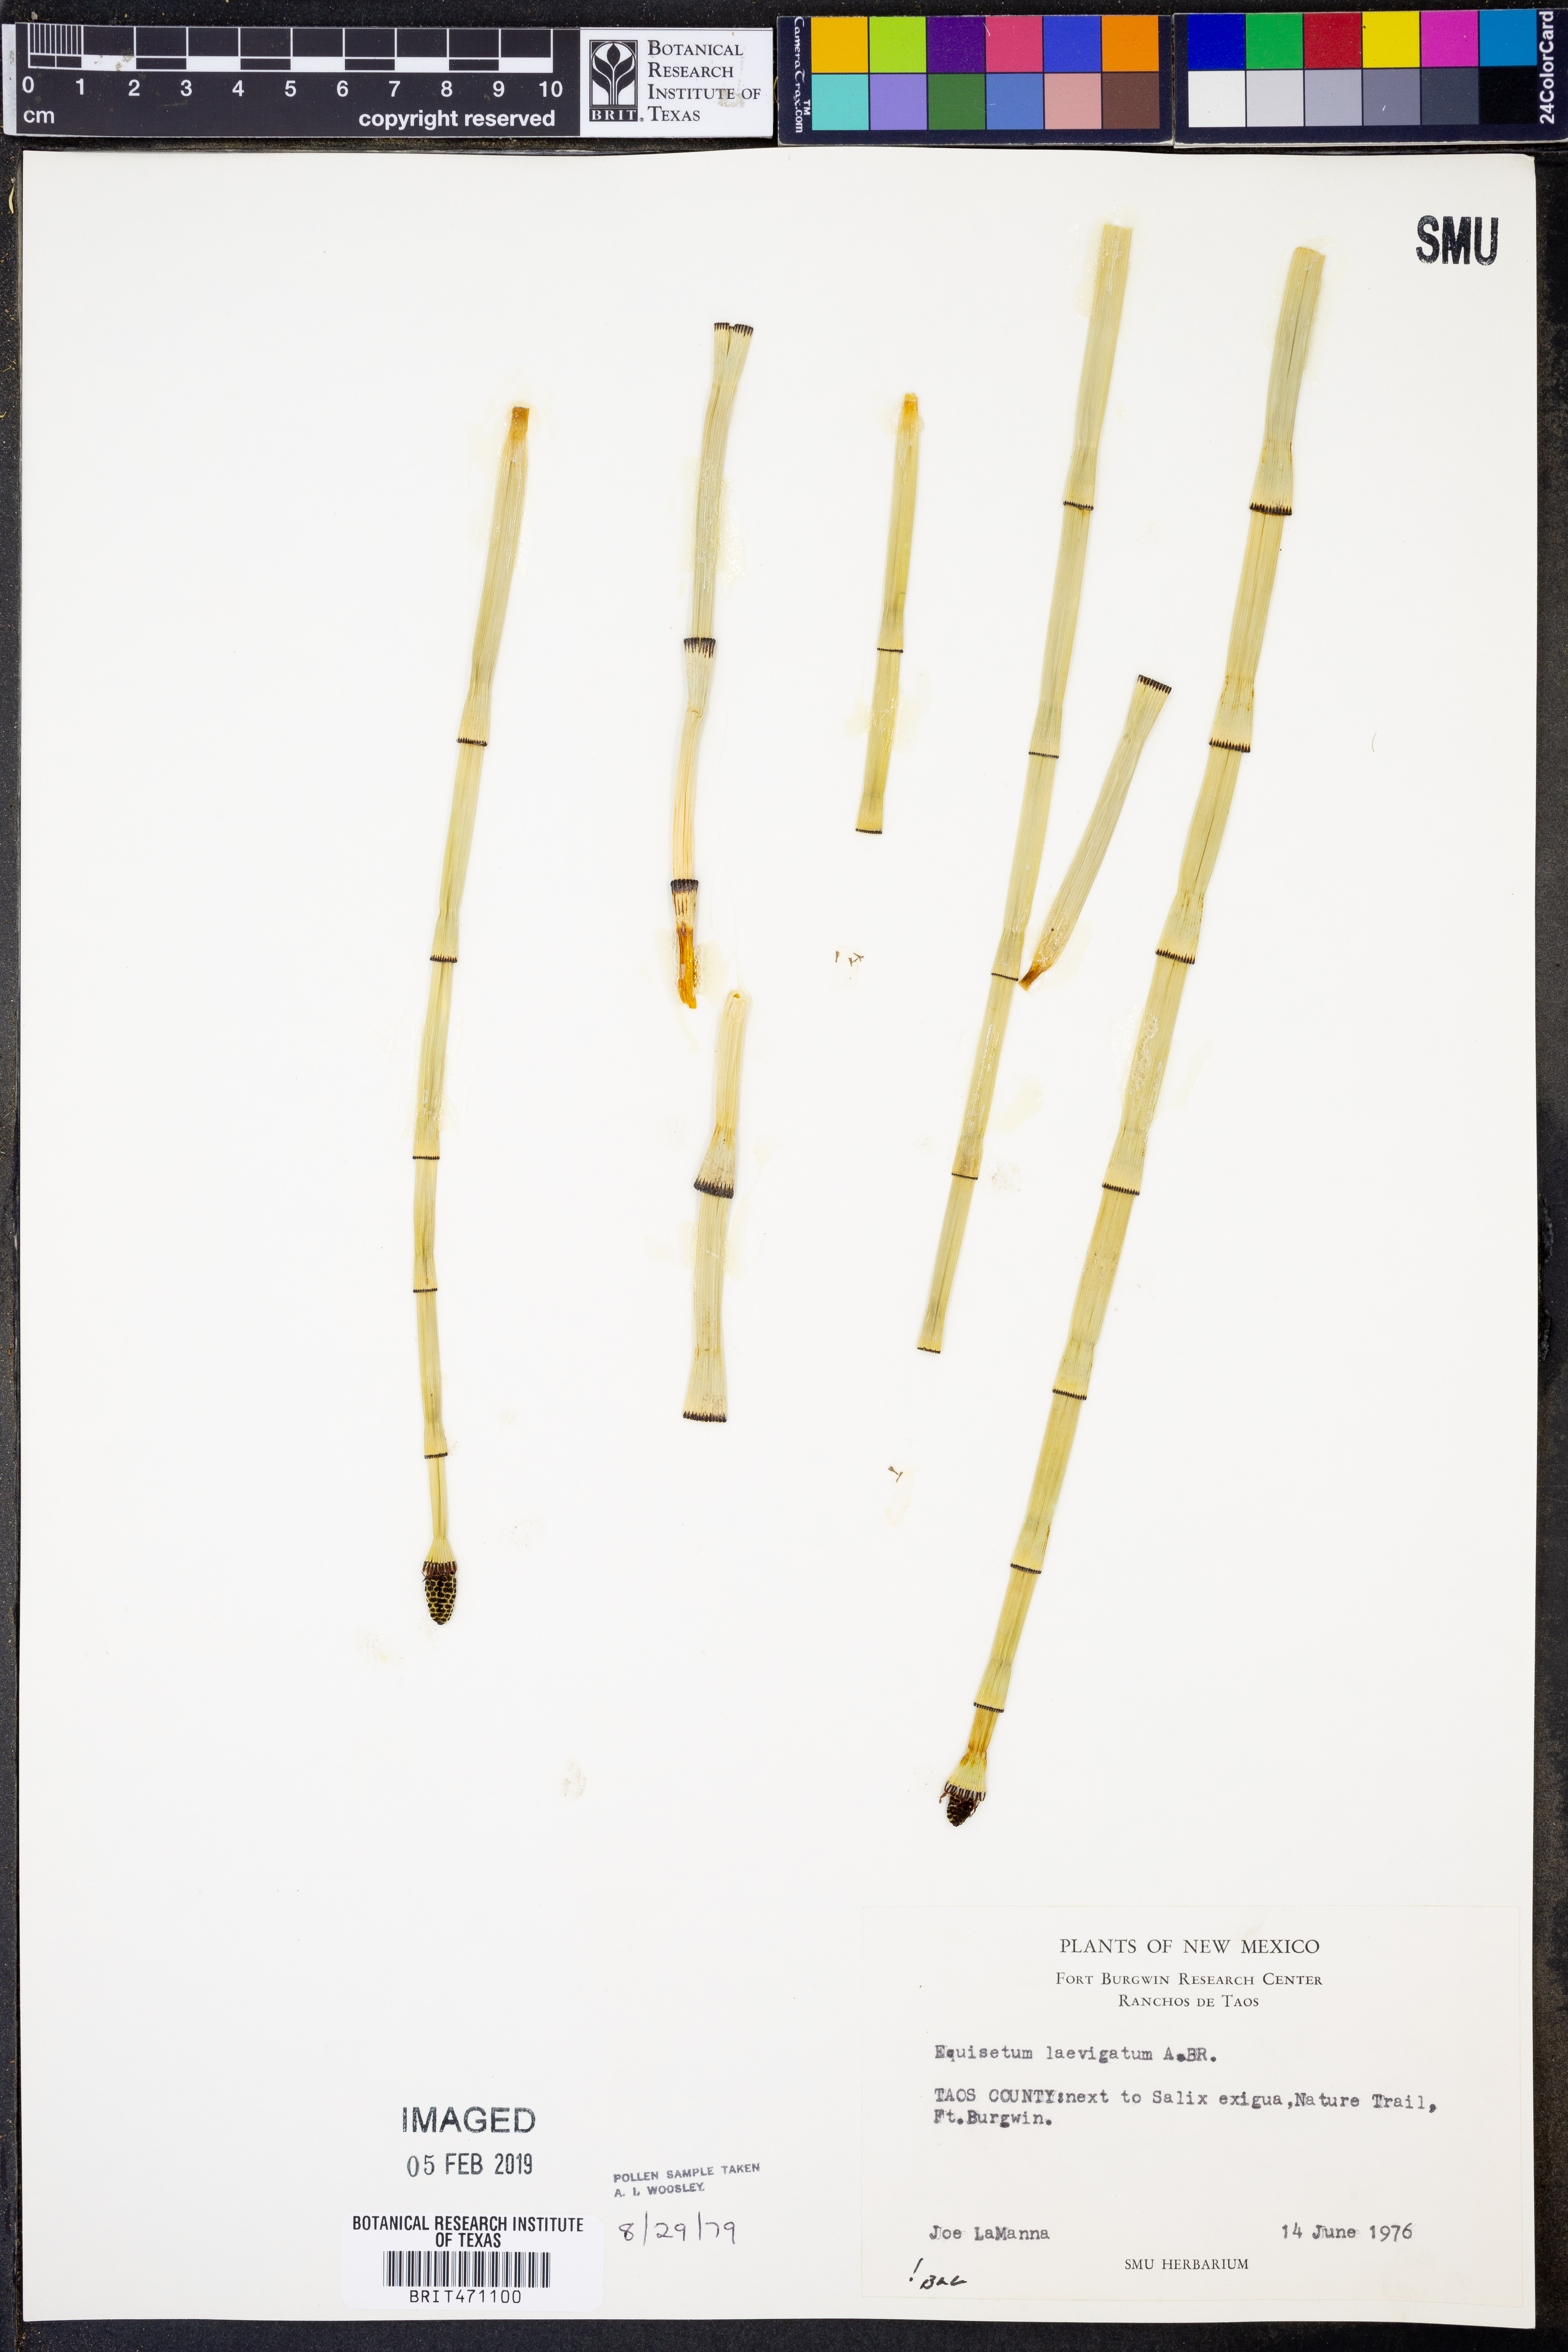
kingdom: Plantae
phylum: Tracheophyta
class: Polypodiopsida
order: Equisetales
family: Equisetaceae
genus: Equisetum
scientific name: Equisetum laevigatum
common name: Smooth scouring-rush
